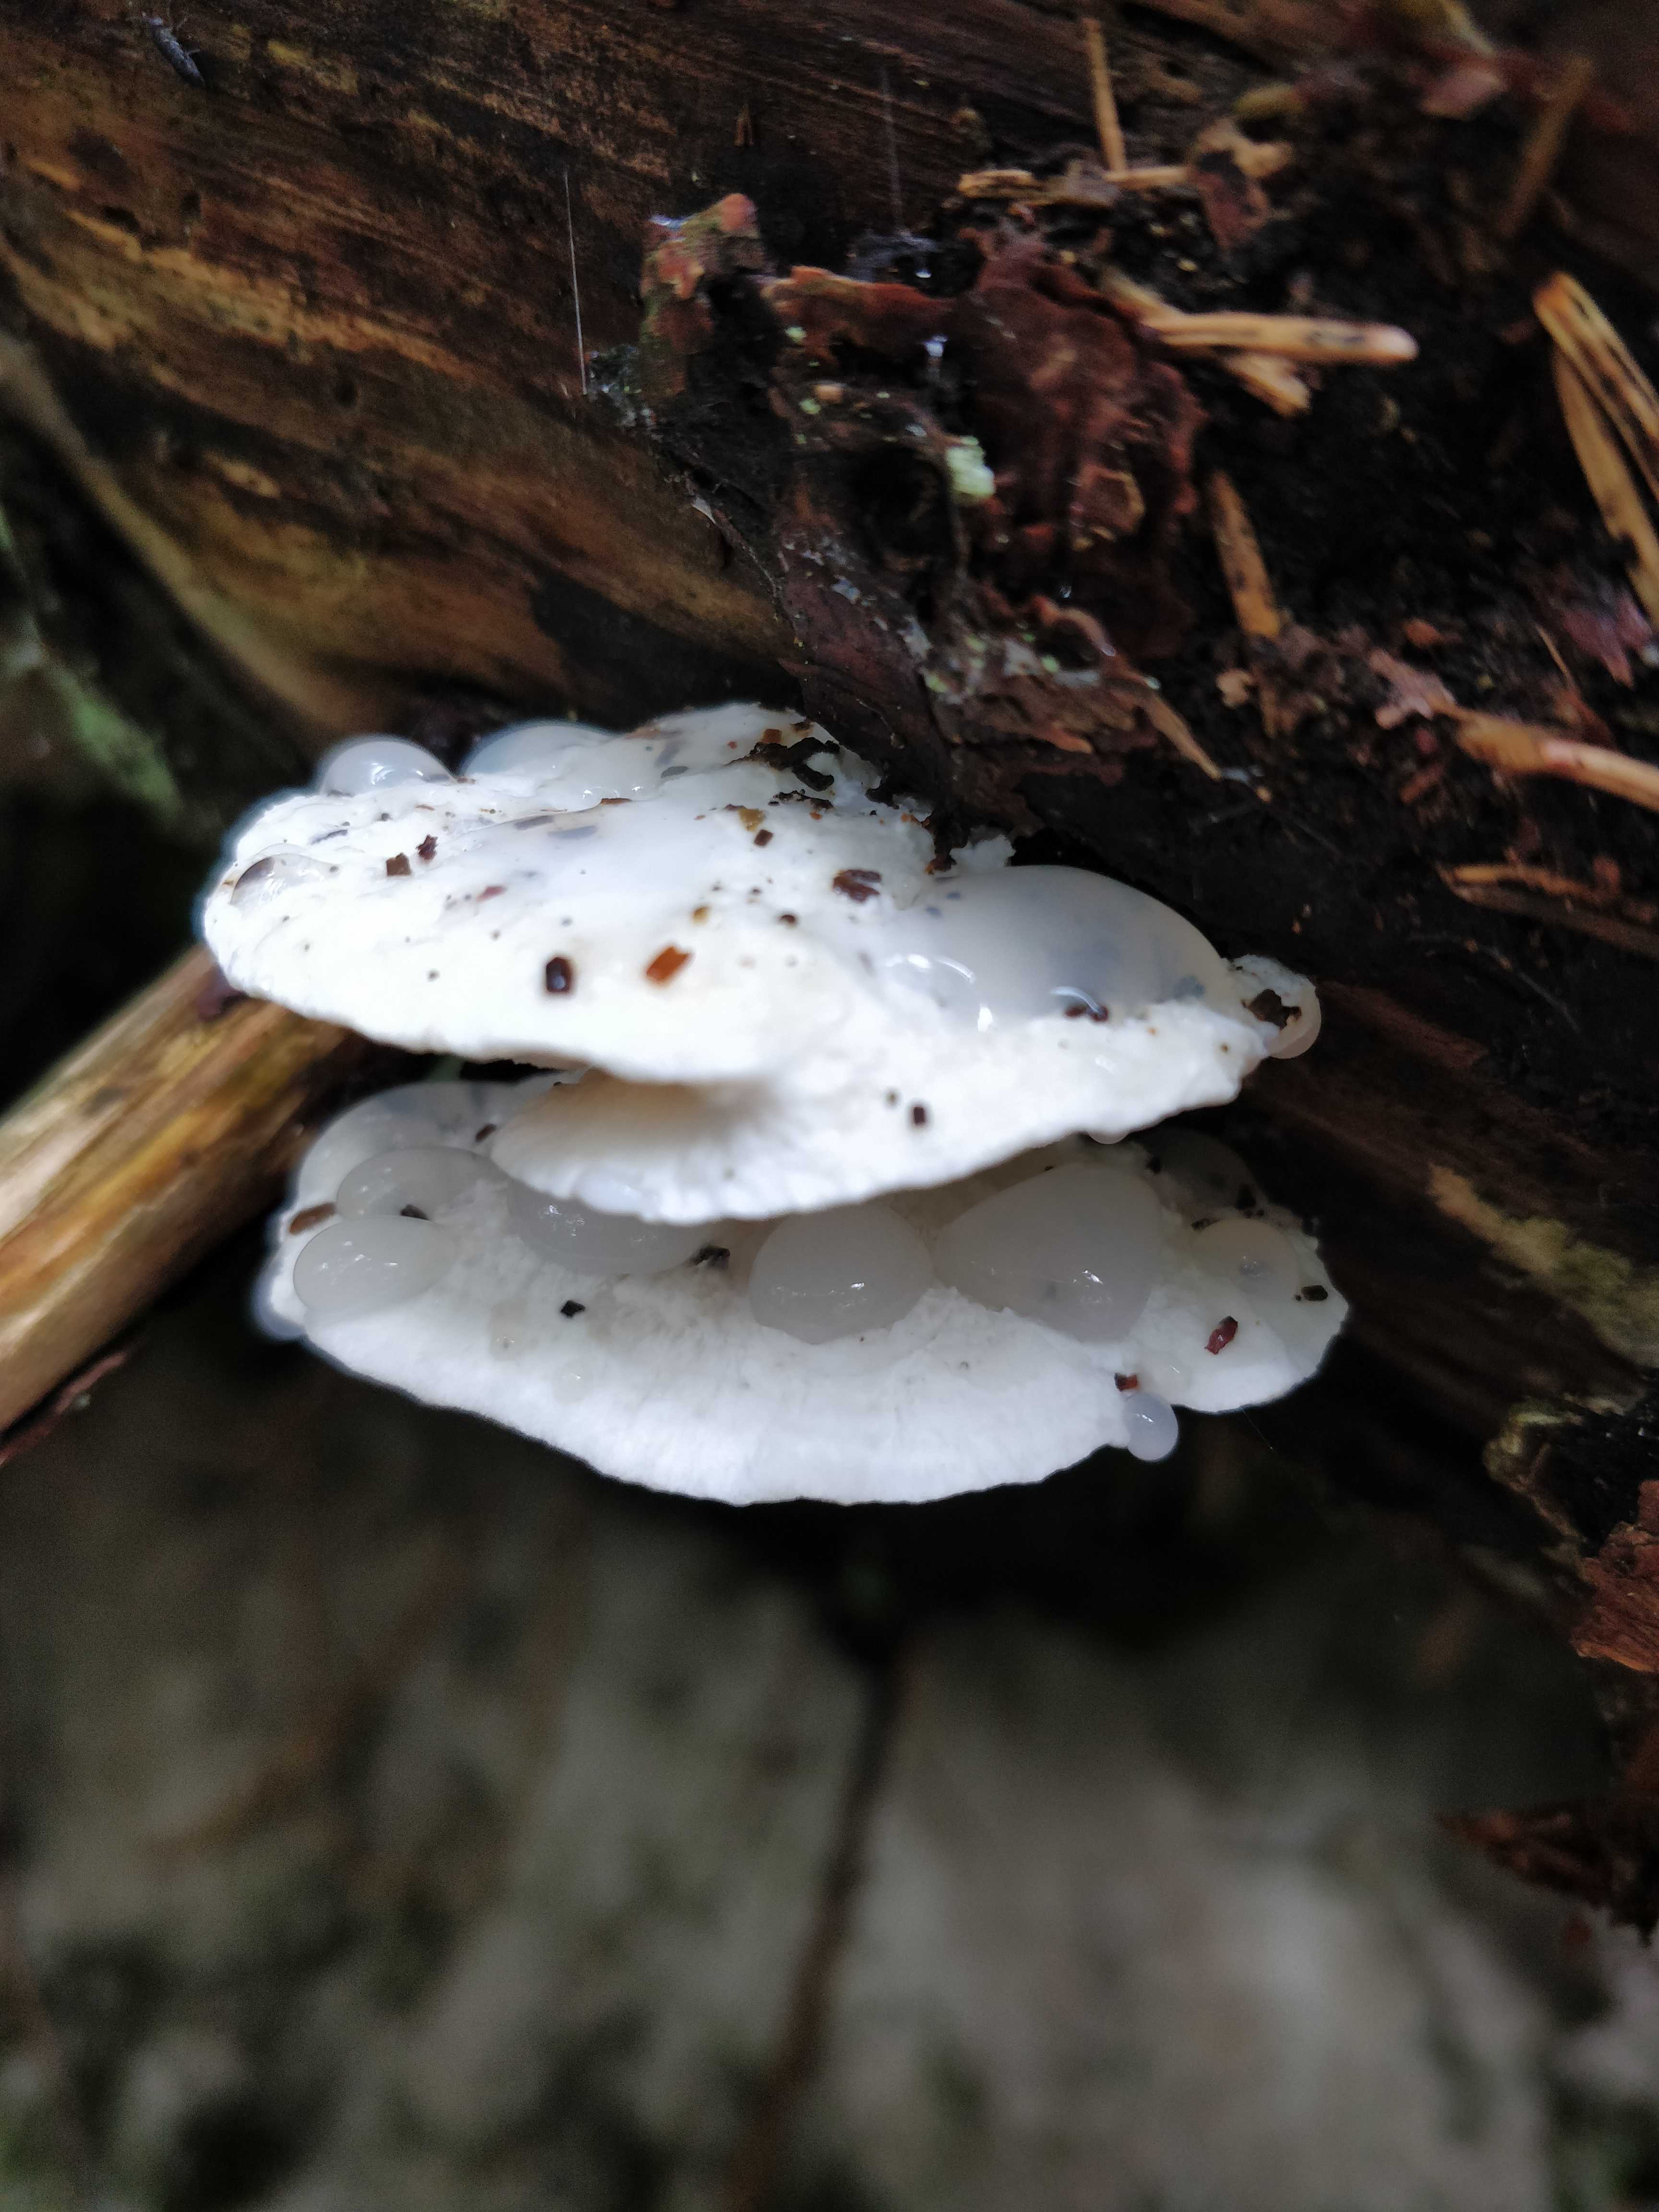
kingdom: Fungi
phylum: Basidiomycota
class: Agaricomycetes
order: Polyporales
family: Dacryobolaceae
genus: Postia
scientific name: Postia
